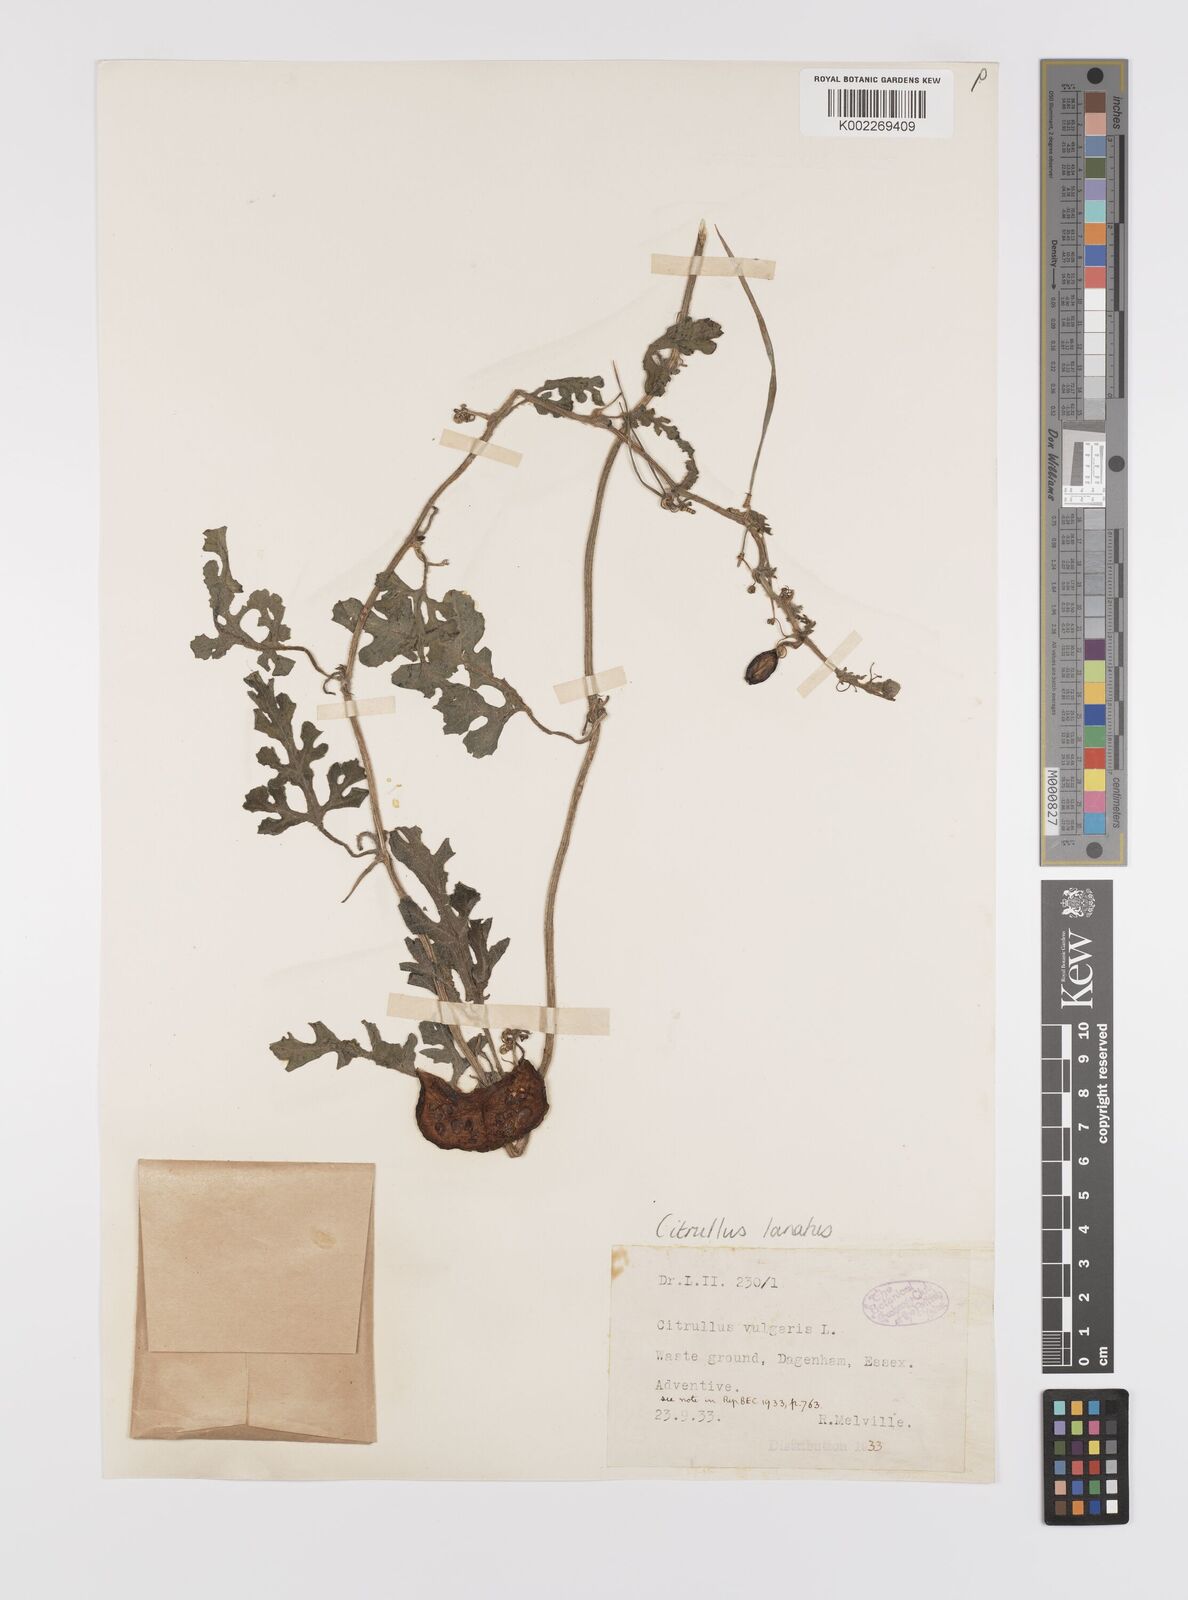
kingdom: Plantae
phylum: Tracheophyta
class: Magnoliopsida
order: Cucurbitales
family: Cucurbitaceae
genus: Citrullus
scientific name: Citrullus lanatus
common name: Watermelon
